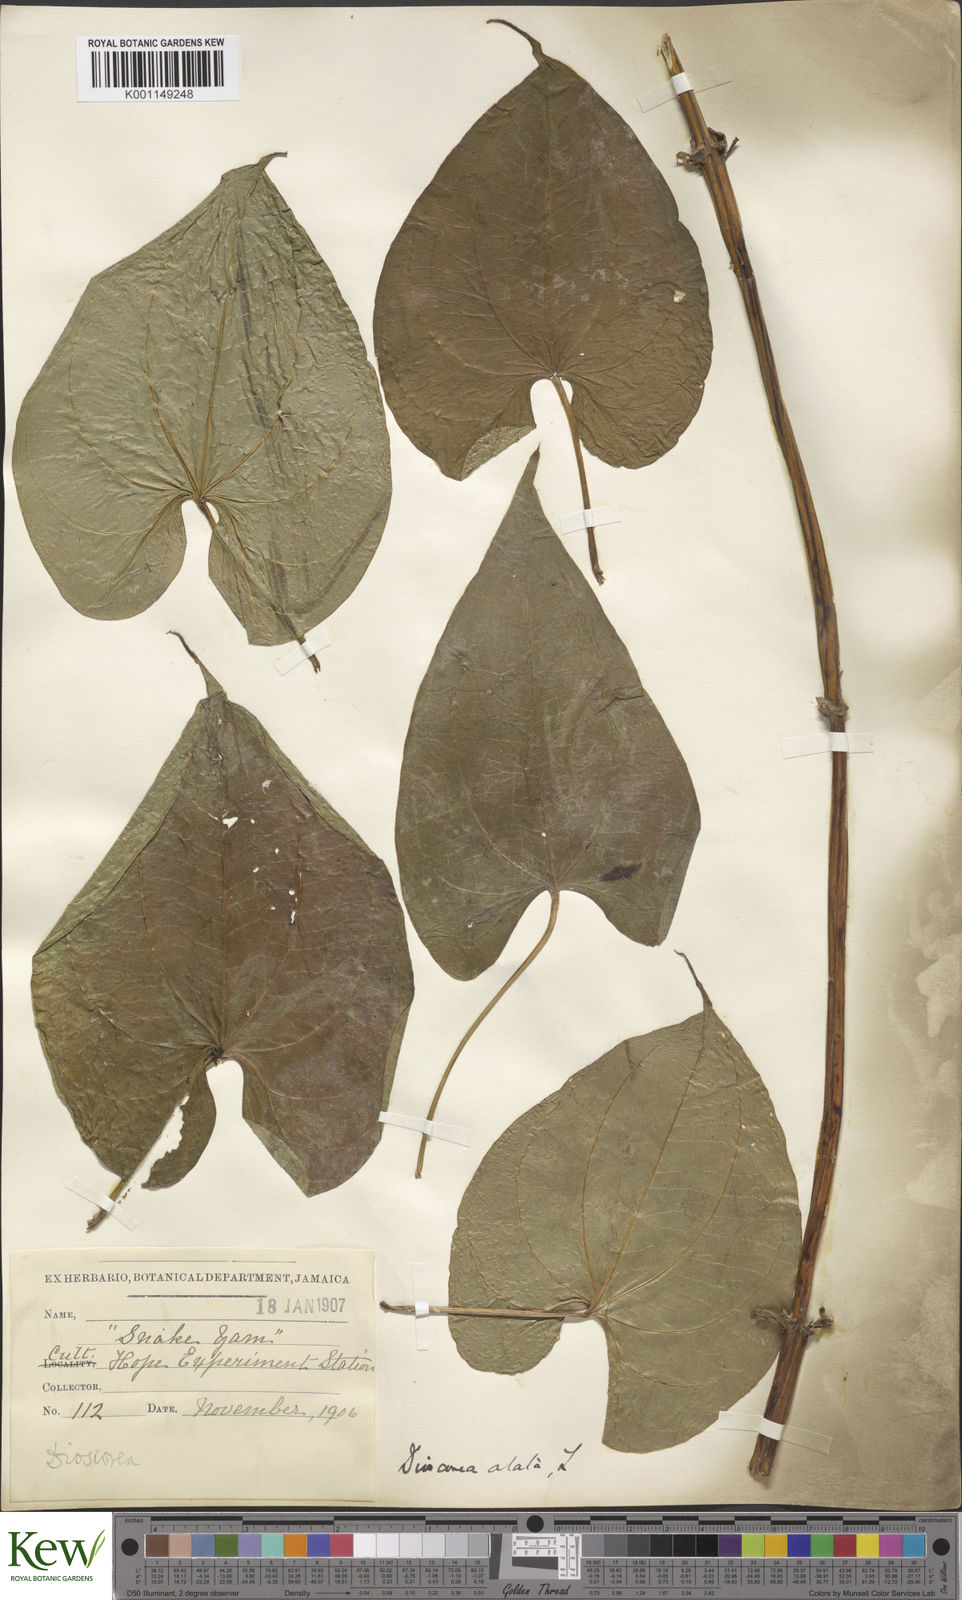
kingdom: Plantae
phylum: Tracheophyta
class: Liliopsida
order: Dioscoreales
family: Dioscoreaceae
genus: Dioscorea
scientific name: Dioscorea alata
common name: Water yam
